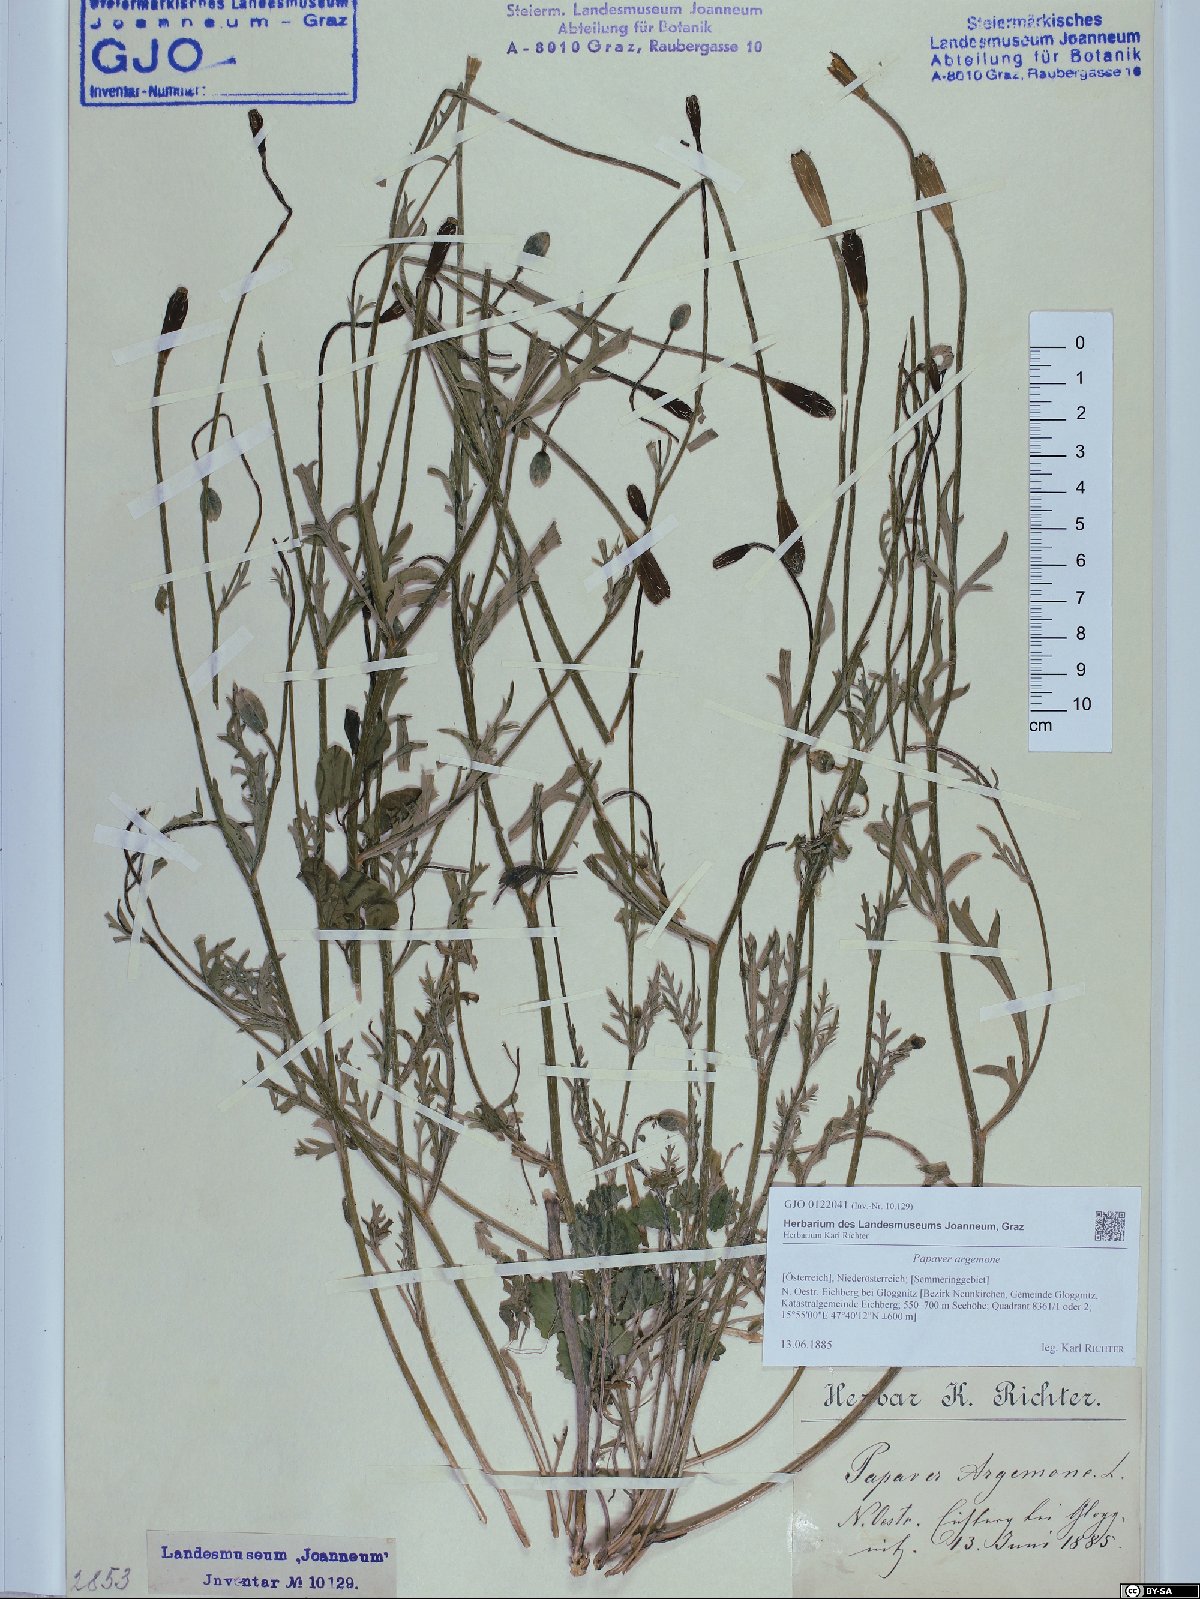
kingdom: Plantae
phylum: Tracheophyta
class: Magnoliopsida
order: Ranunculales
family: Papaveraceae
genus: Roemeria
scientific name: Roemeria argemone
